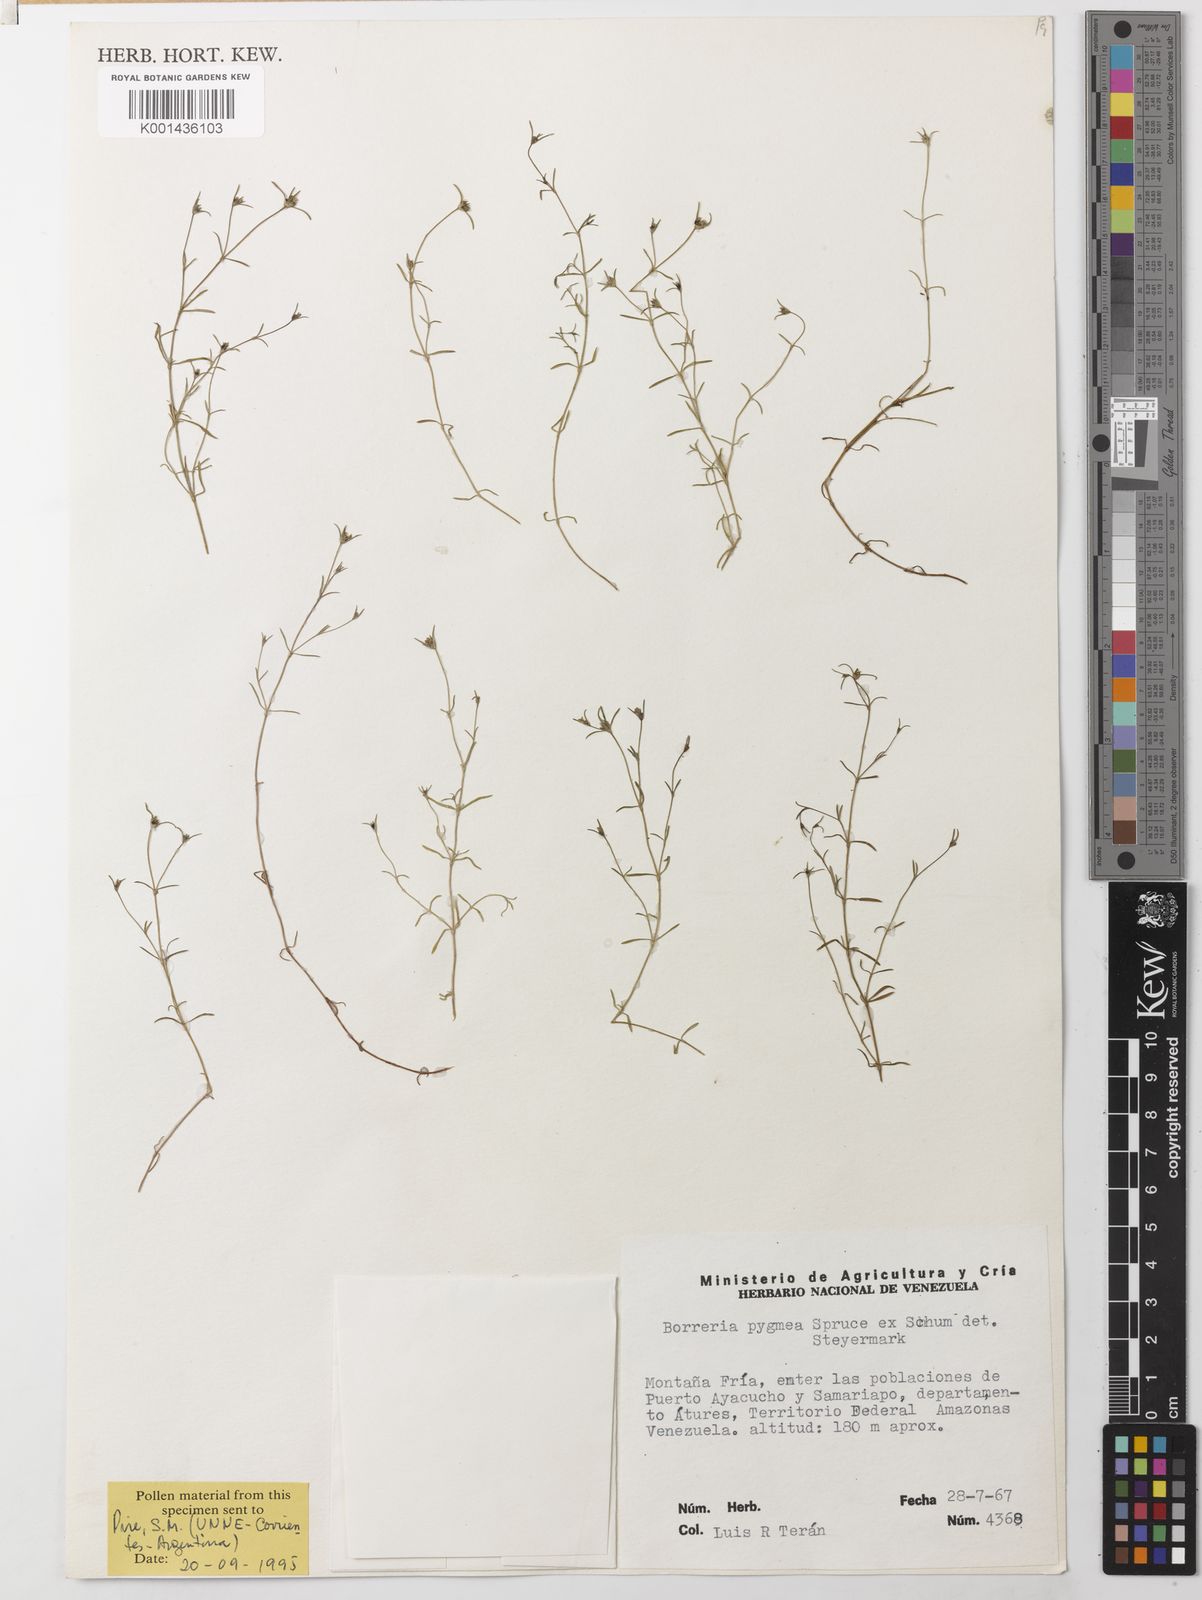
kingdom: Plantae
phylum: Tracheophyta
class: Magnoliopsida
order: Gentianales
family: Rubiaceae
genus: Spermacoce
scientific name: Spermacoce verticillata
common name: Shrubby false buttonweed
